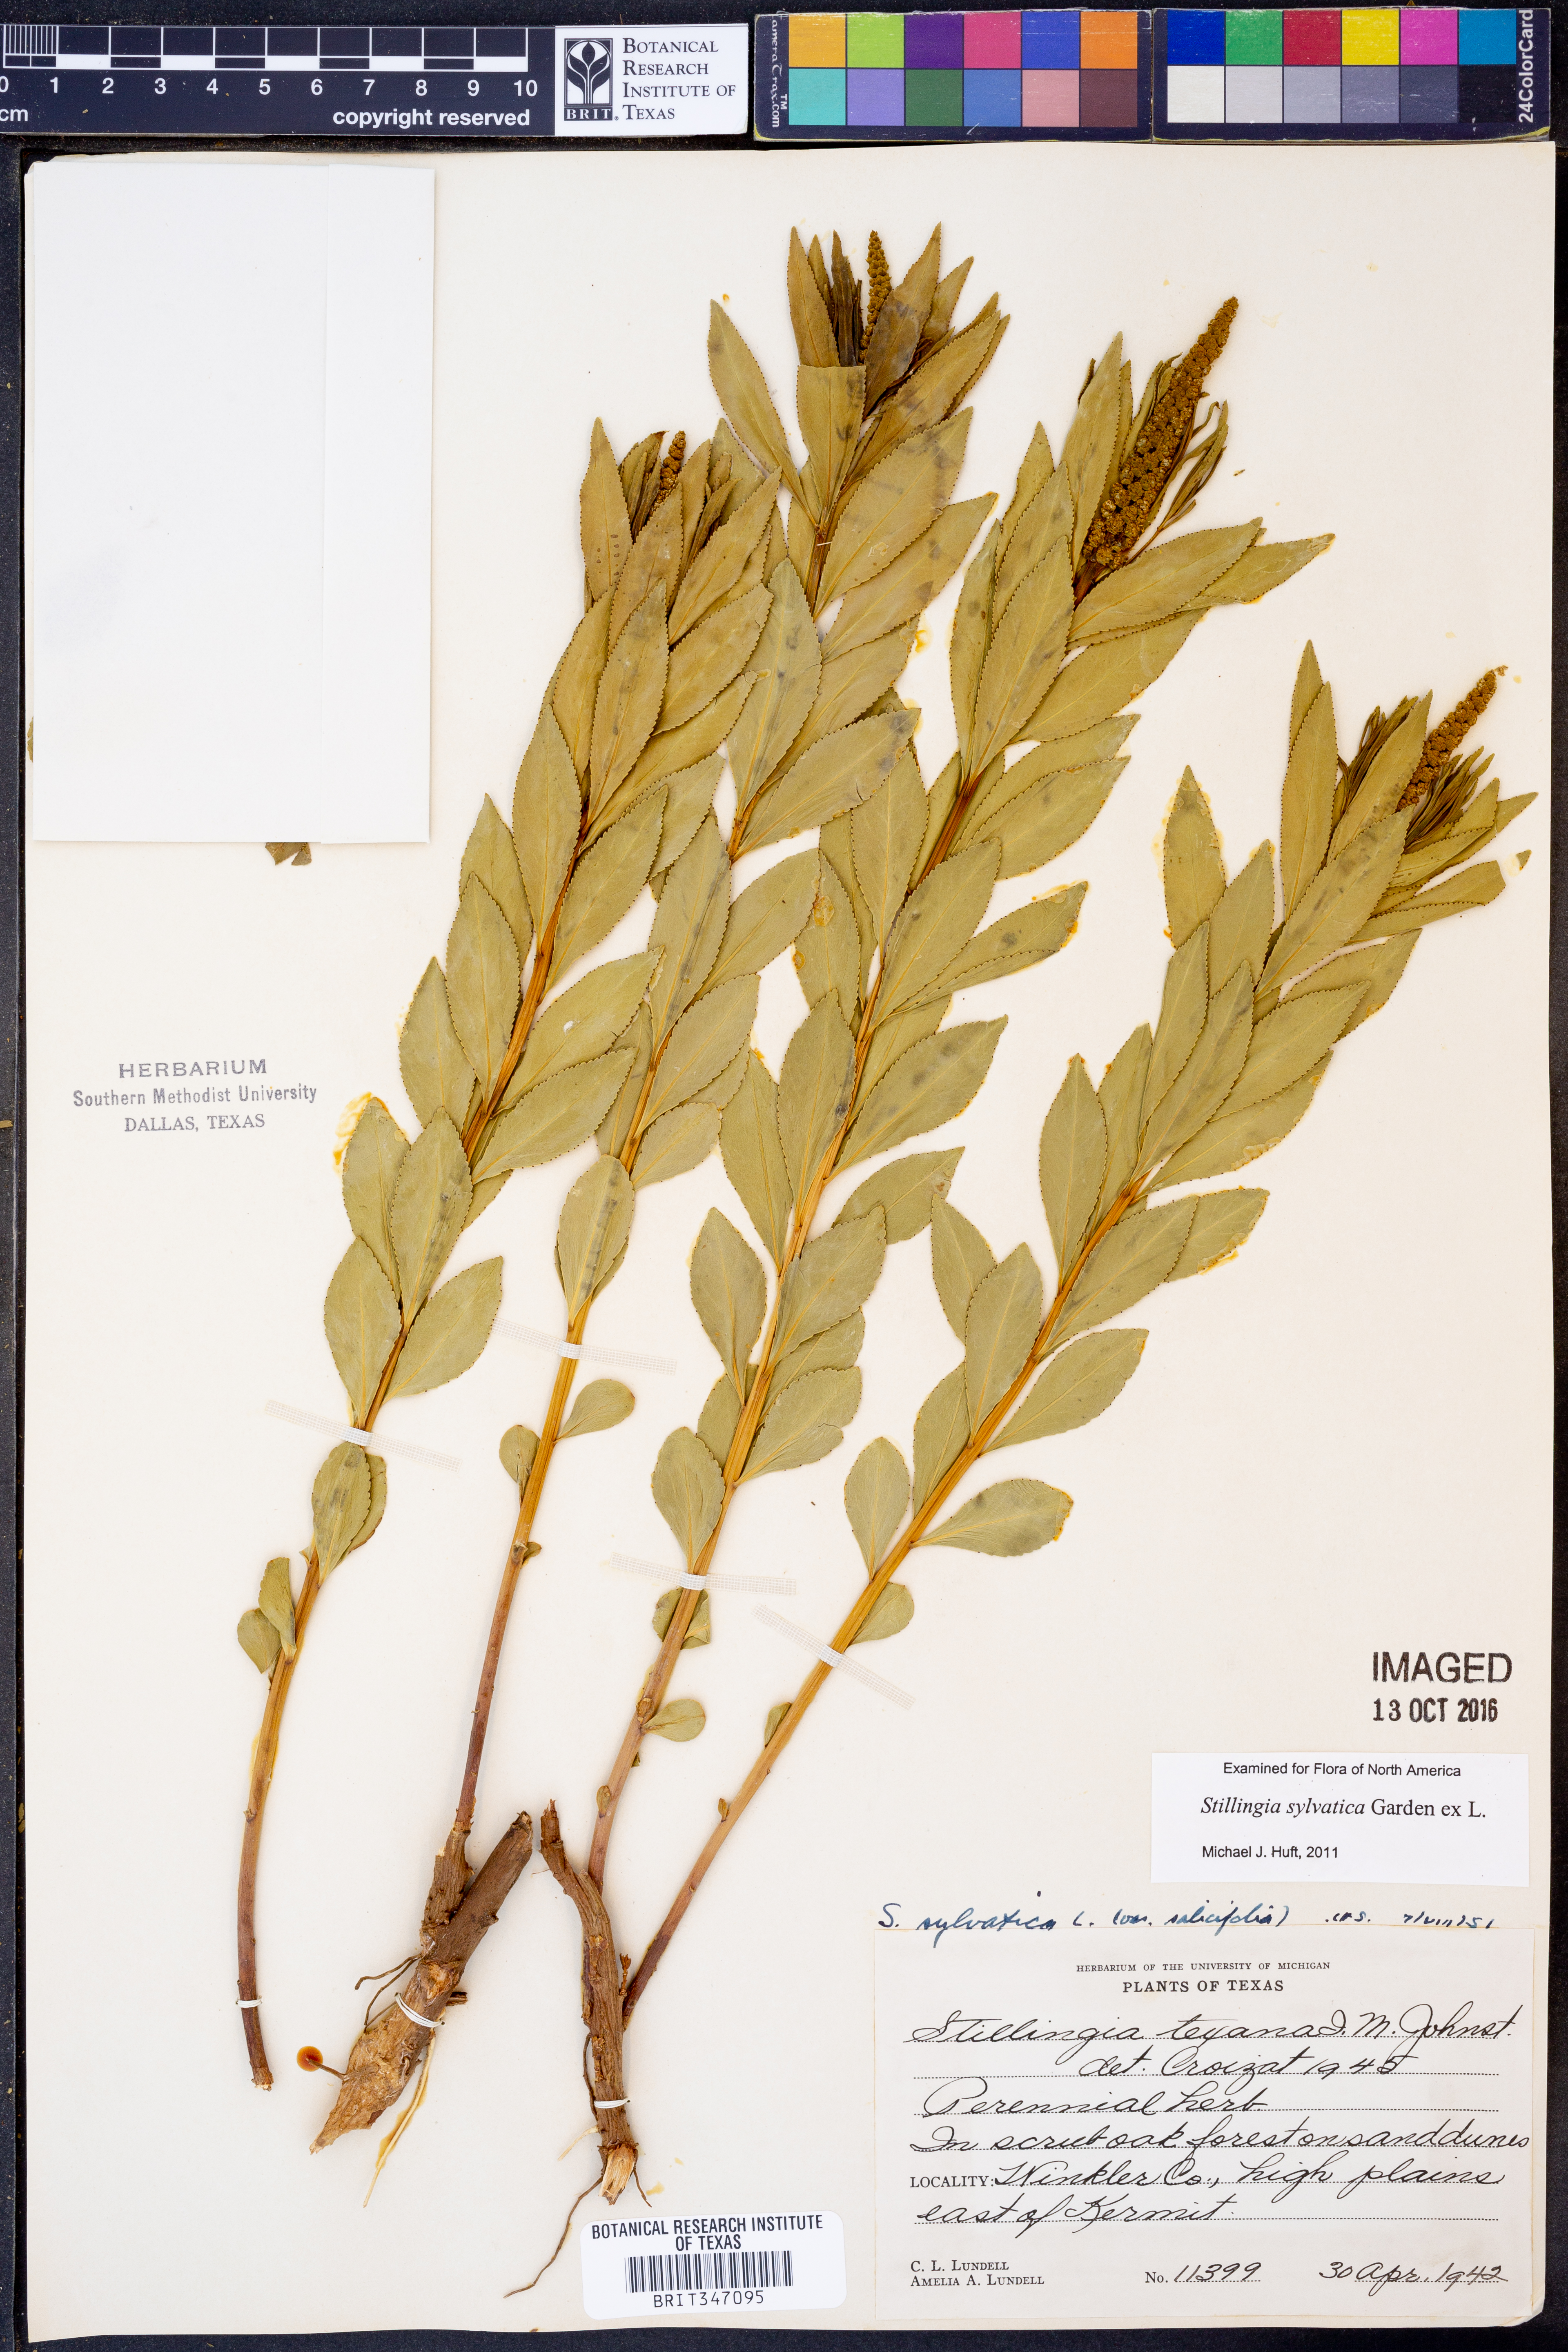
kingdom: Plantae
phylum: Tracheophyta
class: Magnoliopsida
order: Malpighiales
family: Euphorbiaceae
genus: Stillingia
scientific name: Stillingia sylvatica
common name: Queen's-delight
